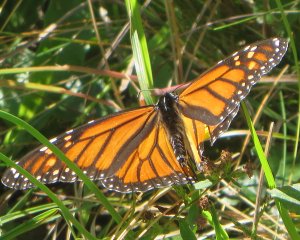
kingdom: Animalia
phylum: Arthropoda
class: Insecta
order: Lepidoptera
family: Nymphalidae
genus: Danaus
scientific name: Danaus plexippus
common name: Monarch
